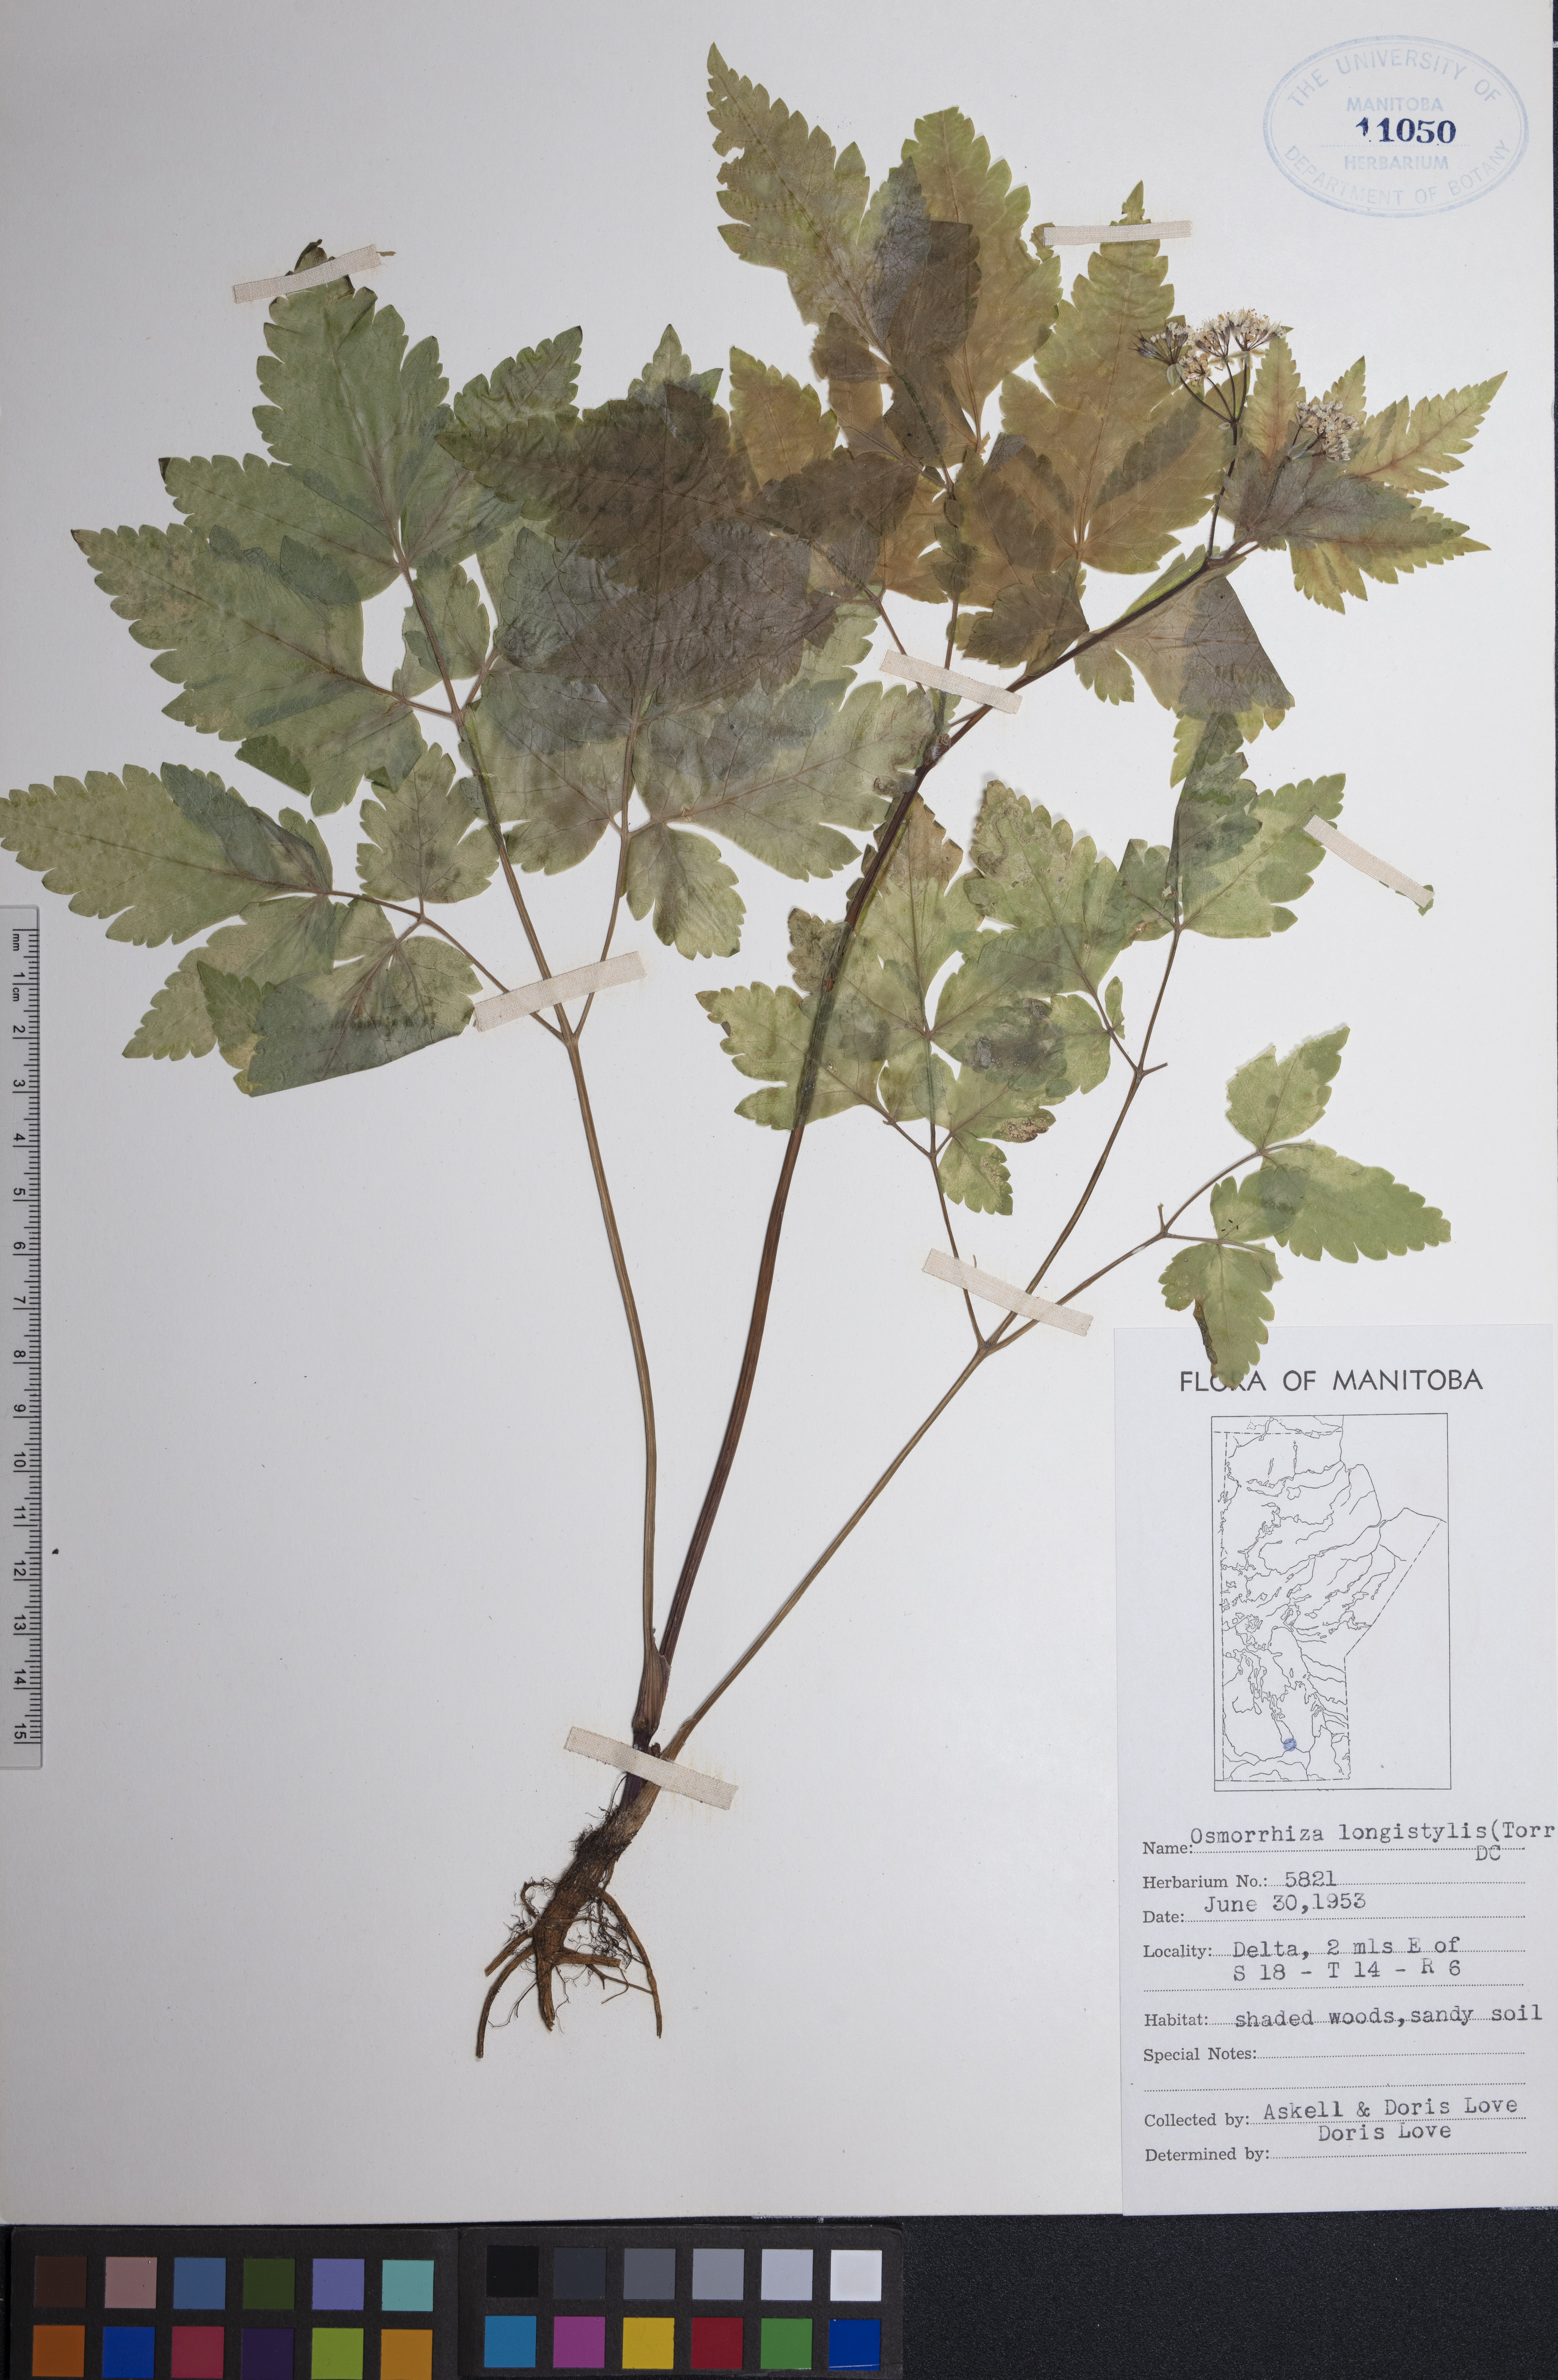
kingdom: Plantae
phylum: Tracheophyta
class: Magnoliopsida
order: Apiales
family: Apiaceae
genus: Osmorhiza
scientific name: Osmorhiza longistylis
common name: Smooth sweet cicely
